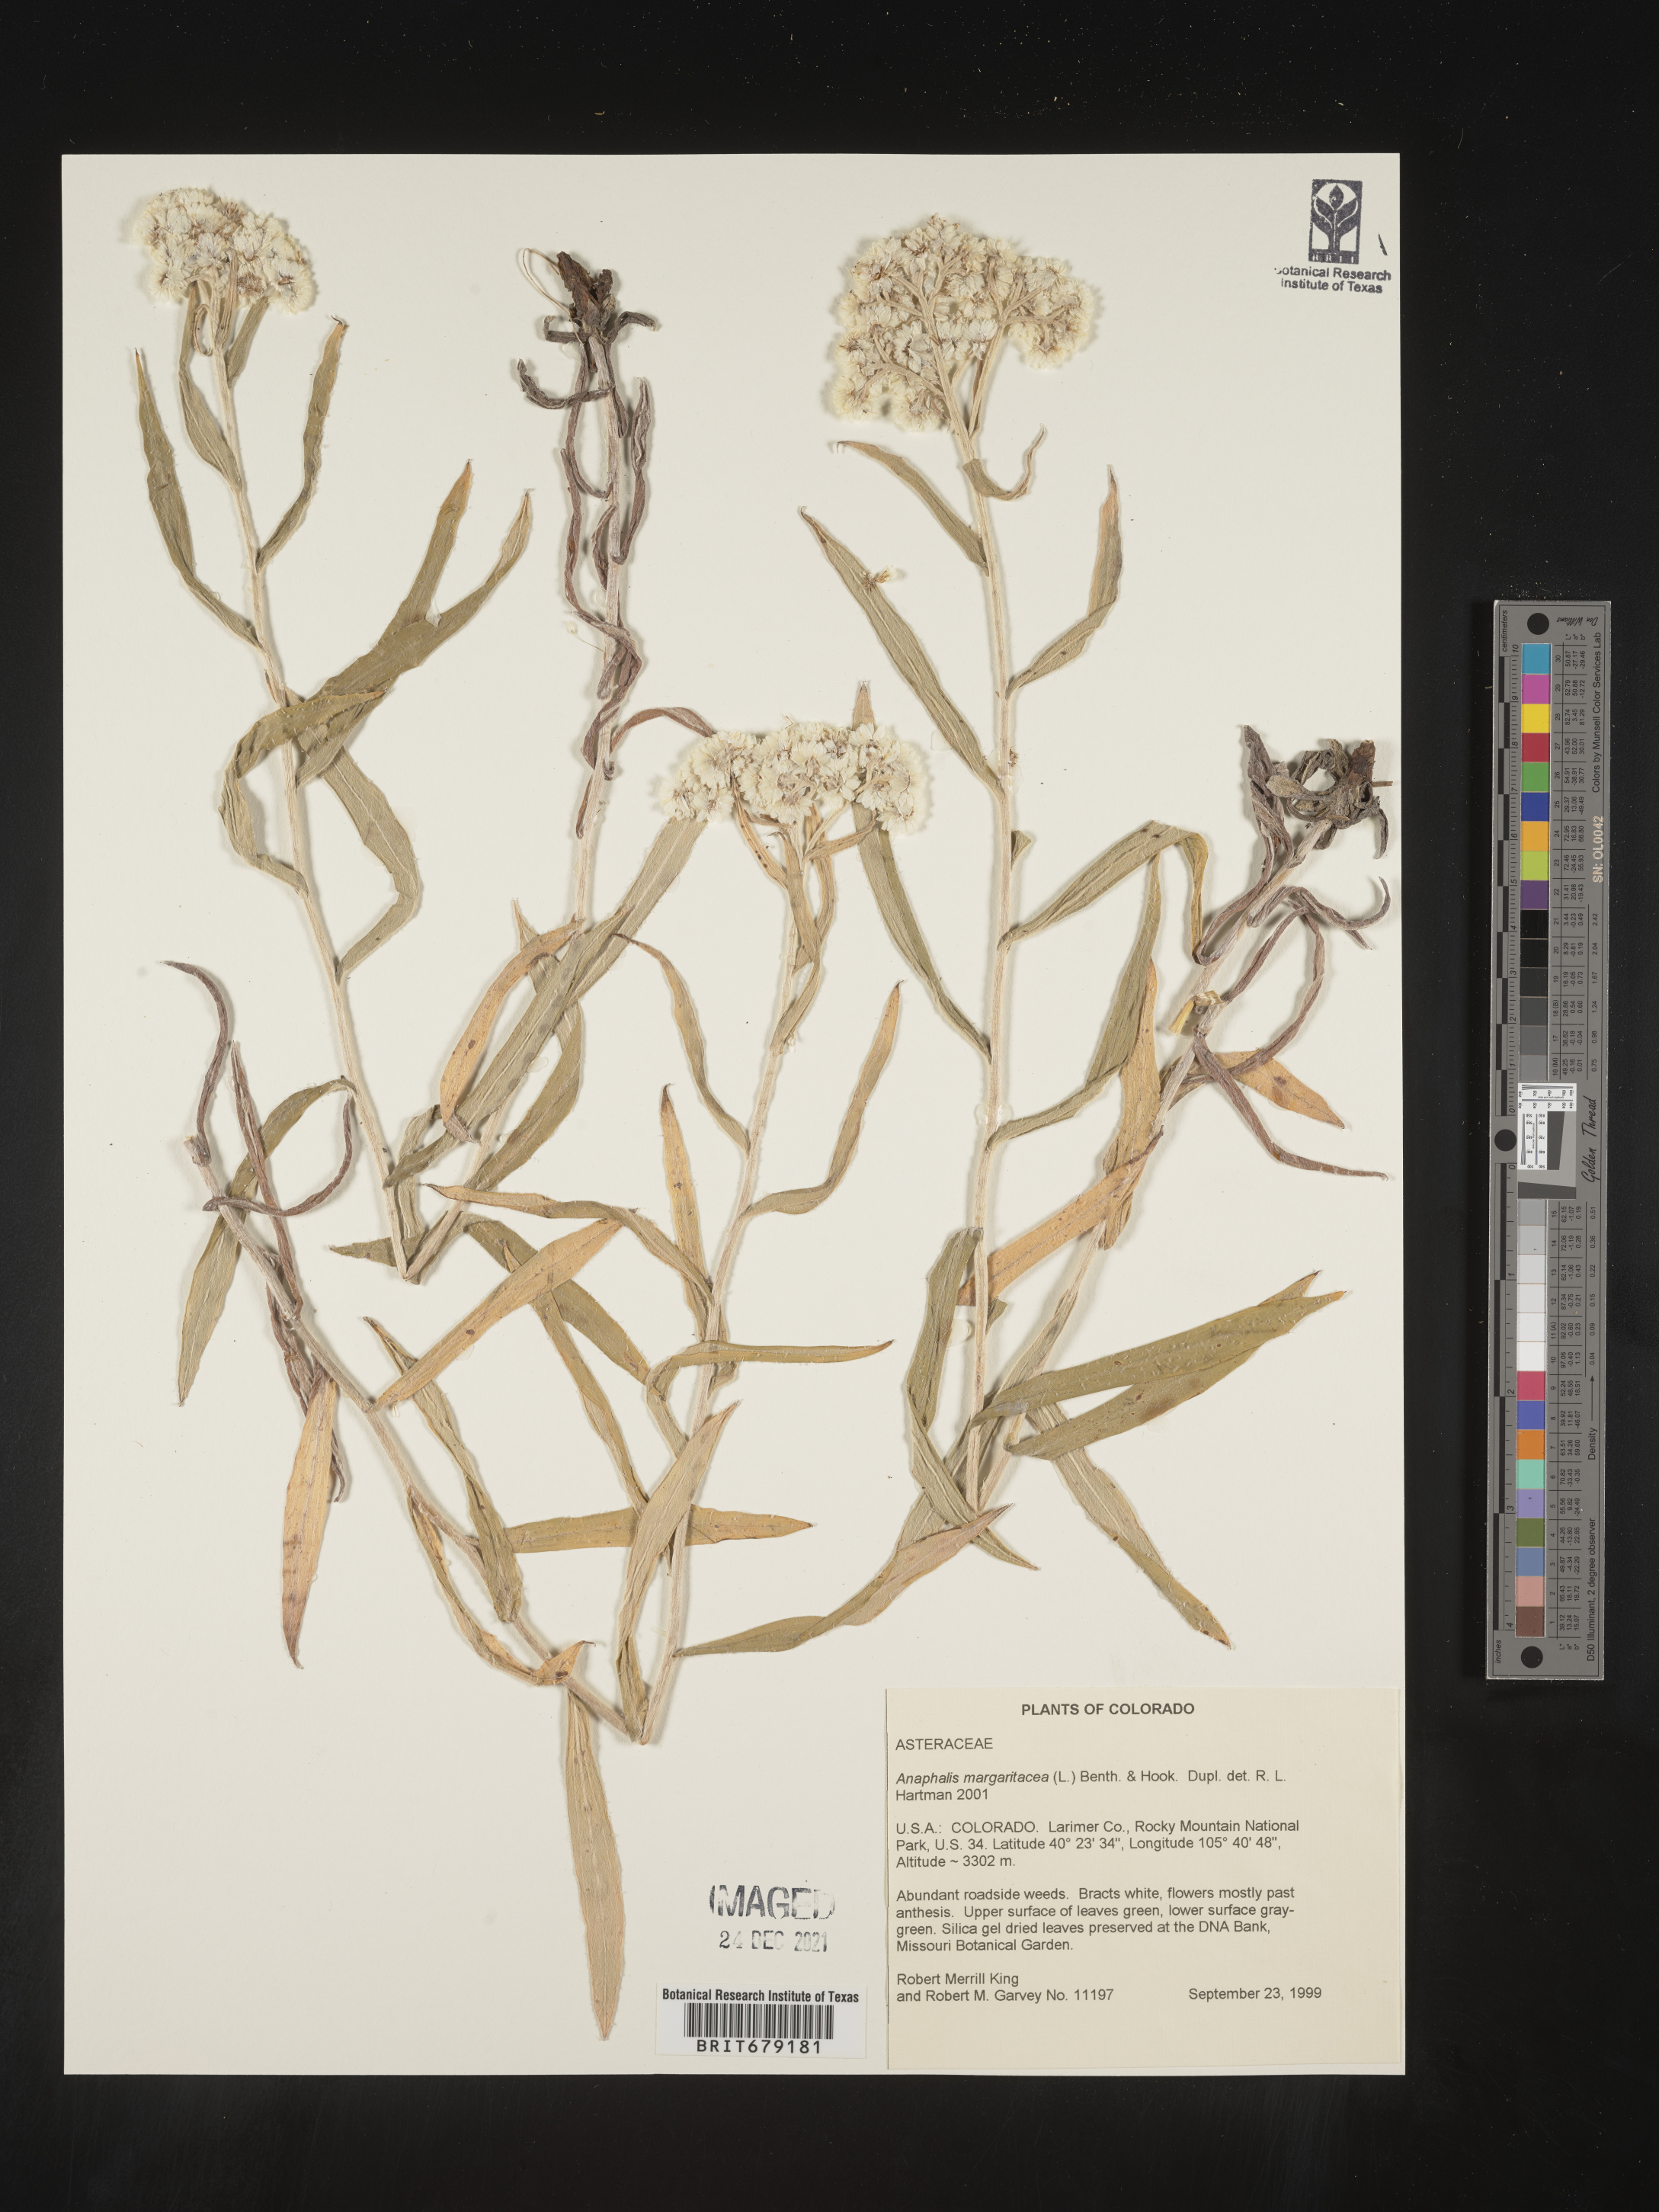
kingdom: Plantae
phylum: Tracheophyta
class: Magnoliopsida
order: Asterales
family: Asteraceae
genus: Anaphalis
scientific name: Anaphalis margaritacea
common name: Pearly everlasting
